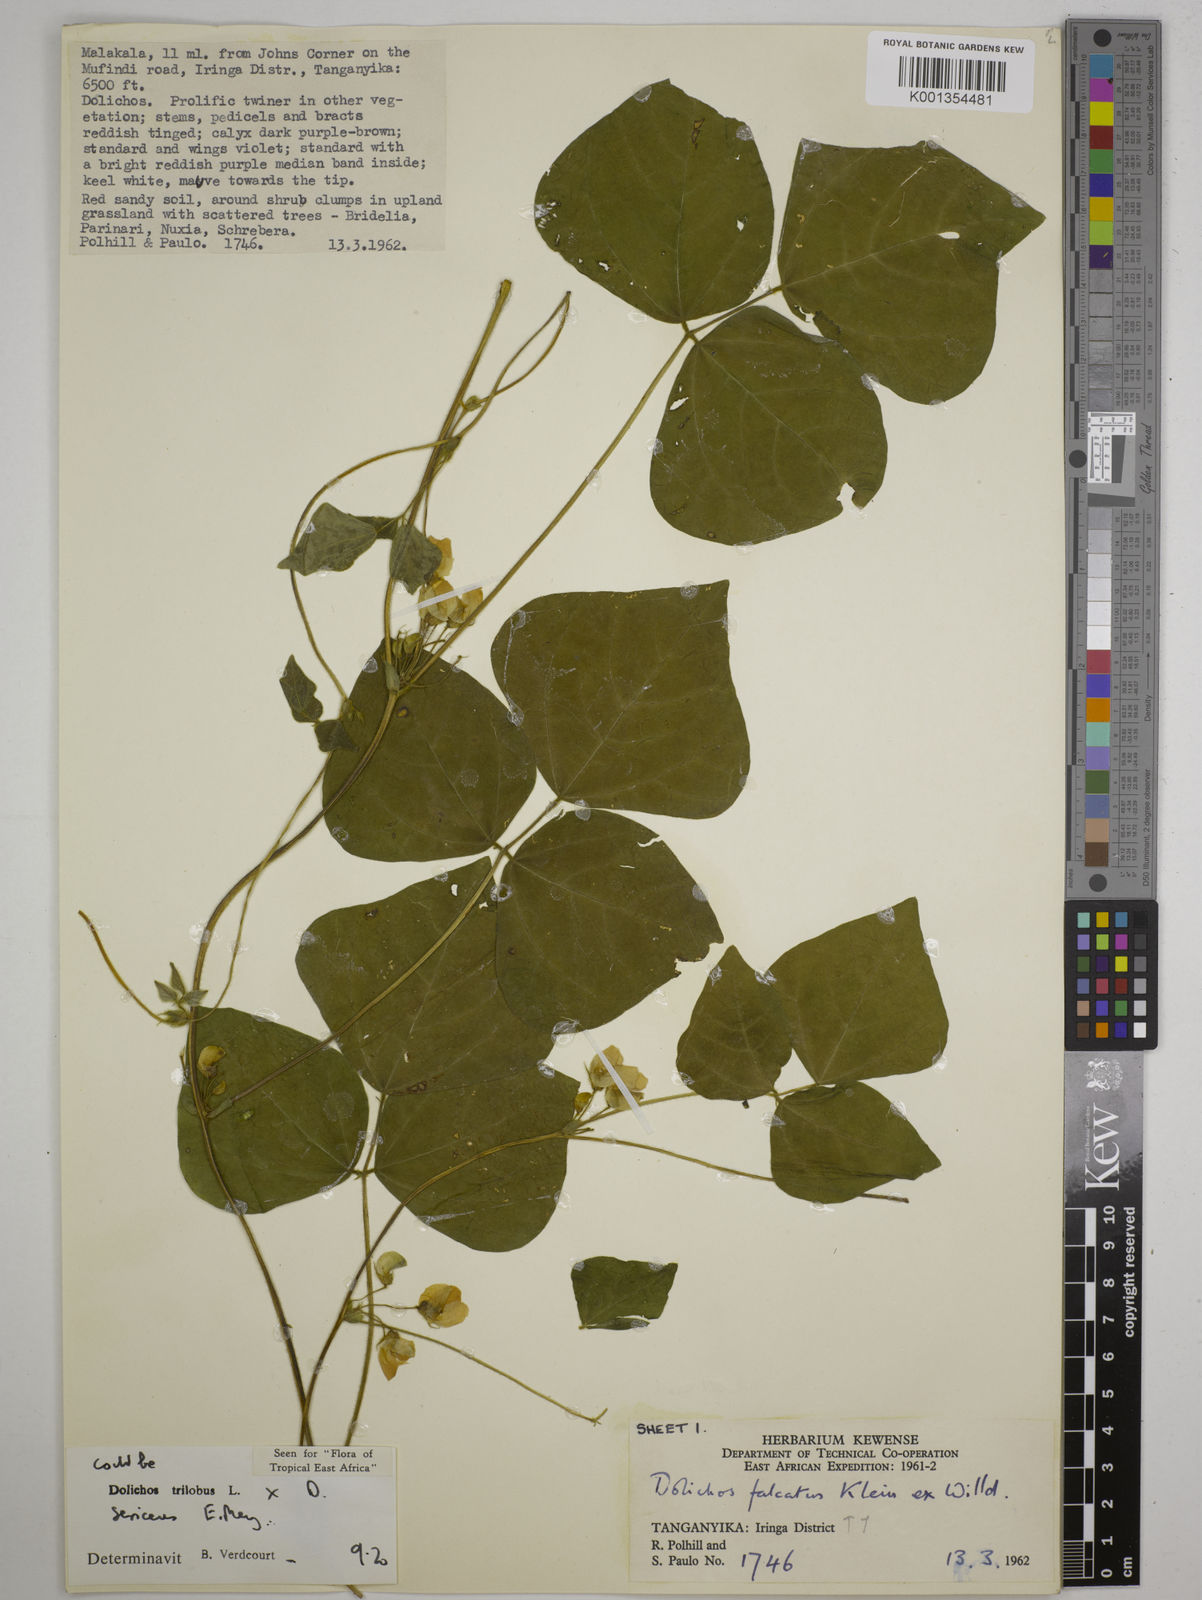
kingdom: Plantae
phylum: Tracheophyta
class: Magnoliopsida
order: Fabales
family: Fabaceae
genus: Dolichos
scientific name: Dolichos
